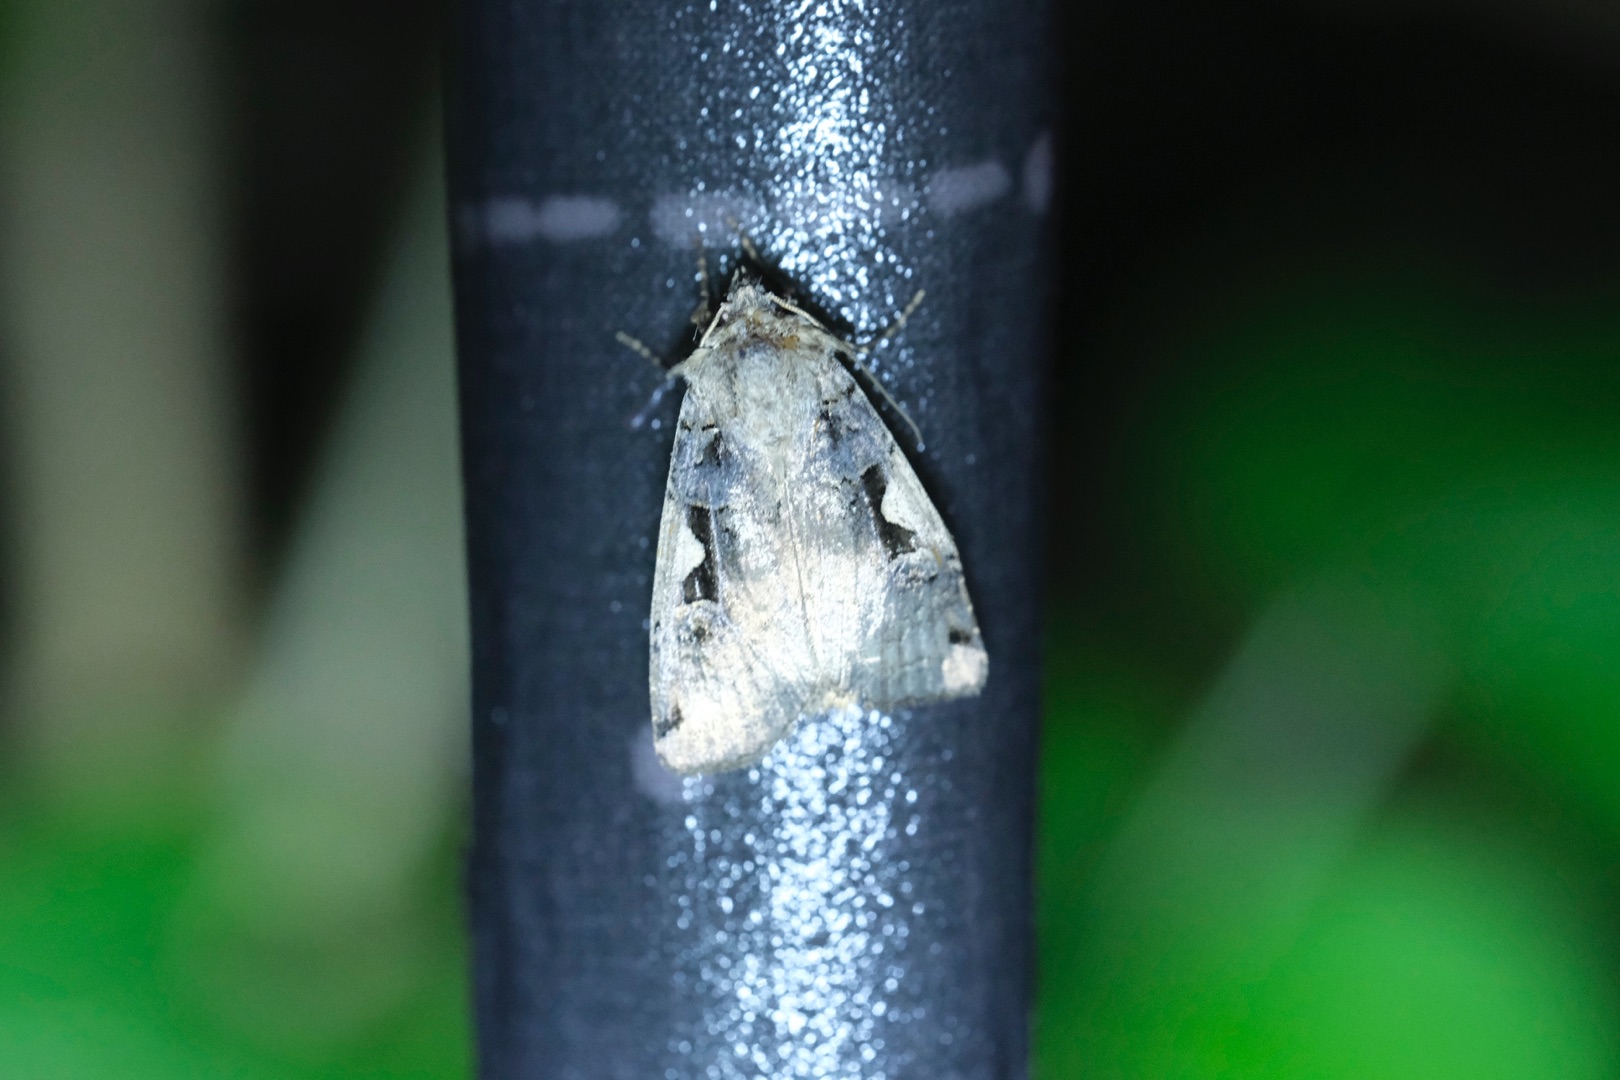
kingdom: Animalia
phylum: Arthropoda
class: Insecta
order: Lepidoptera
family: Noctuidae
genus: Xestia
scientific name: Xestia c-nigrum
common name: Det sorte c
